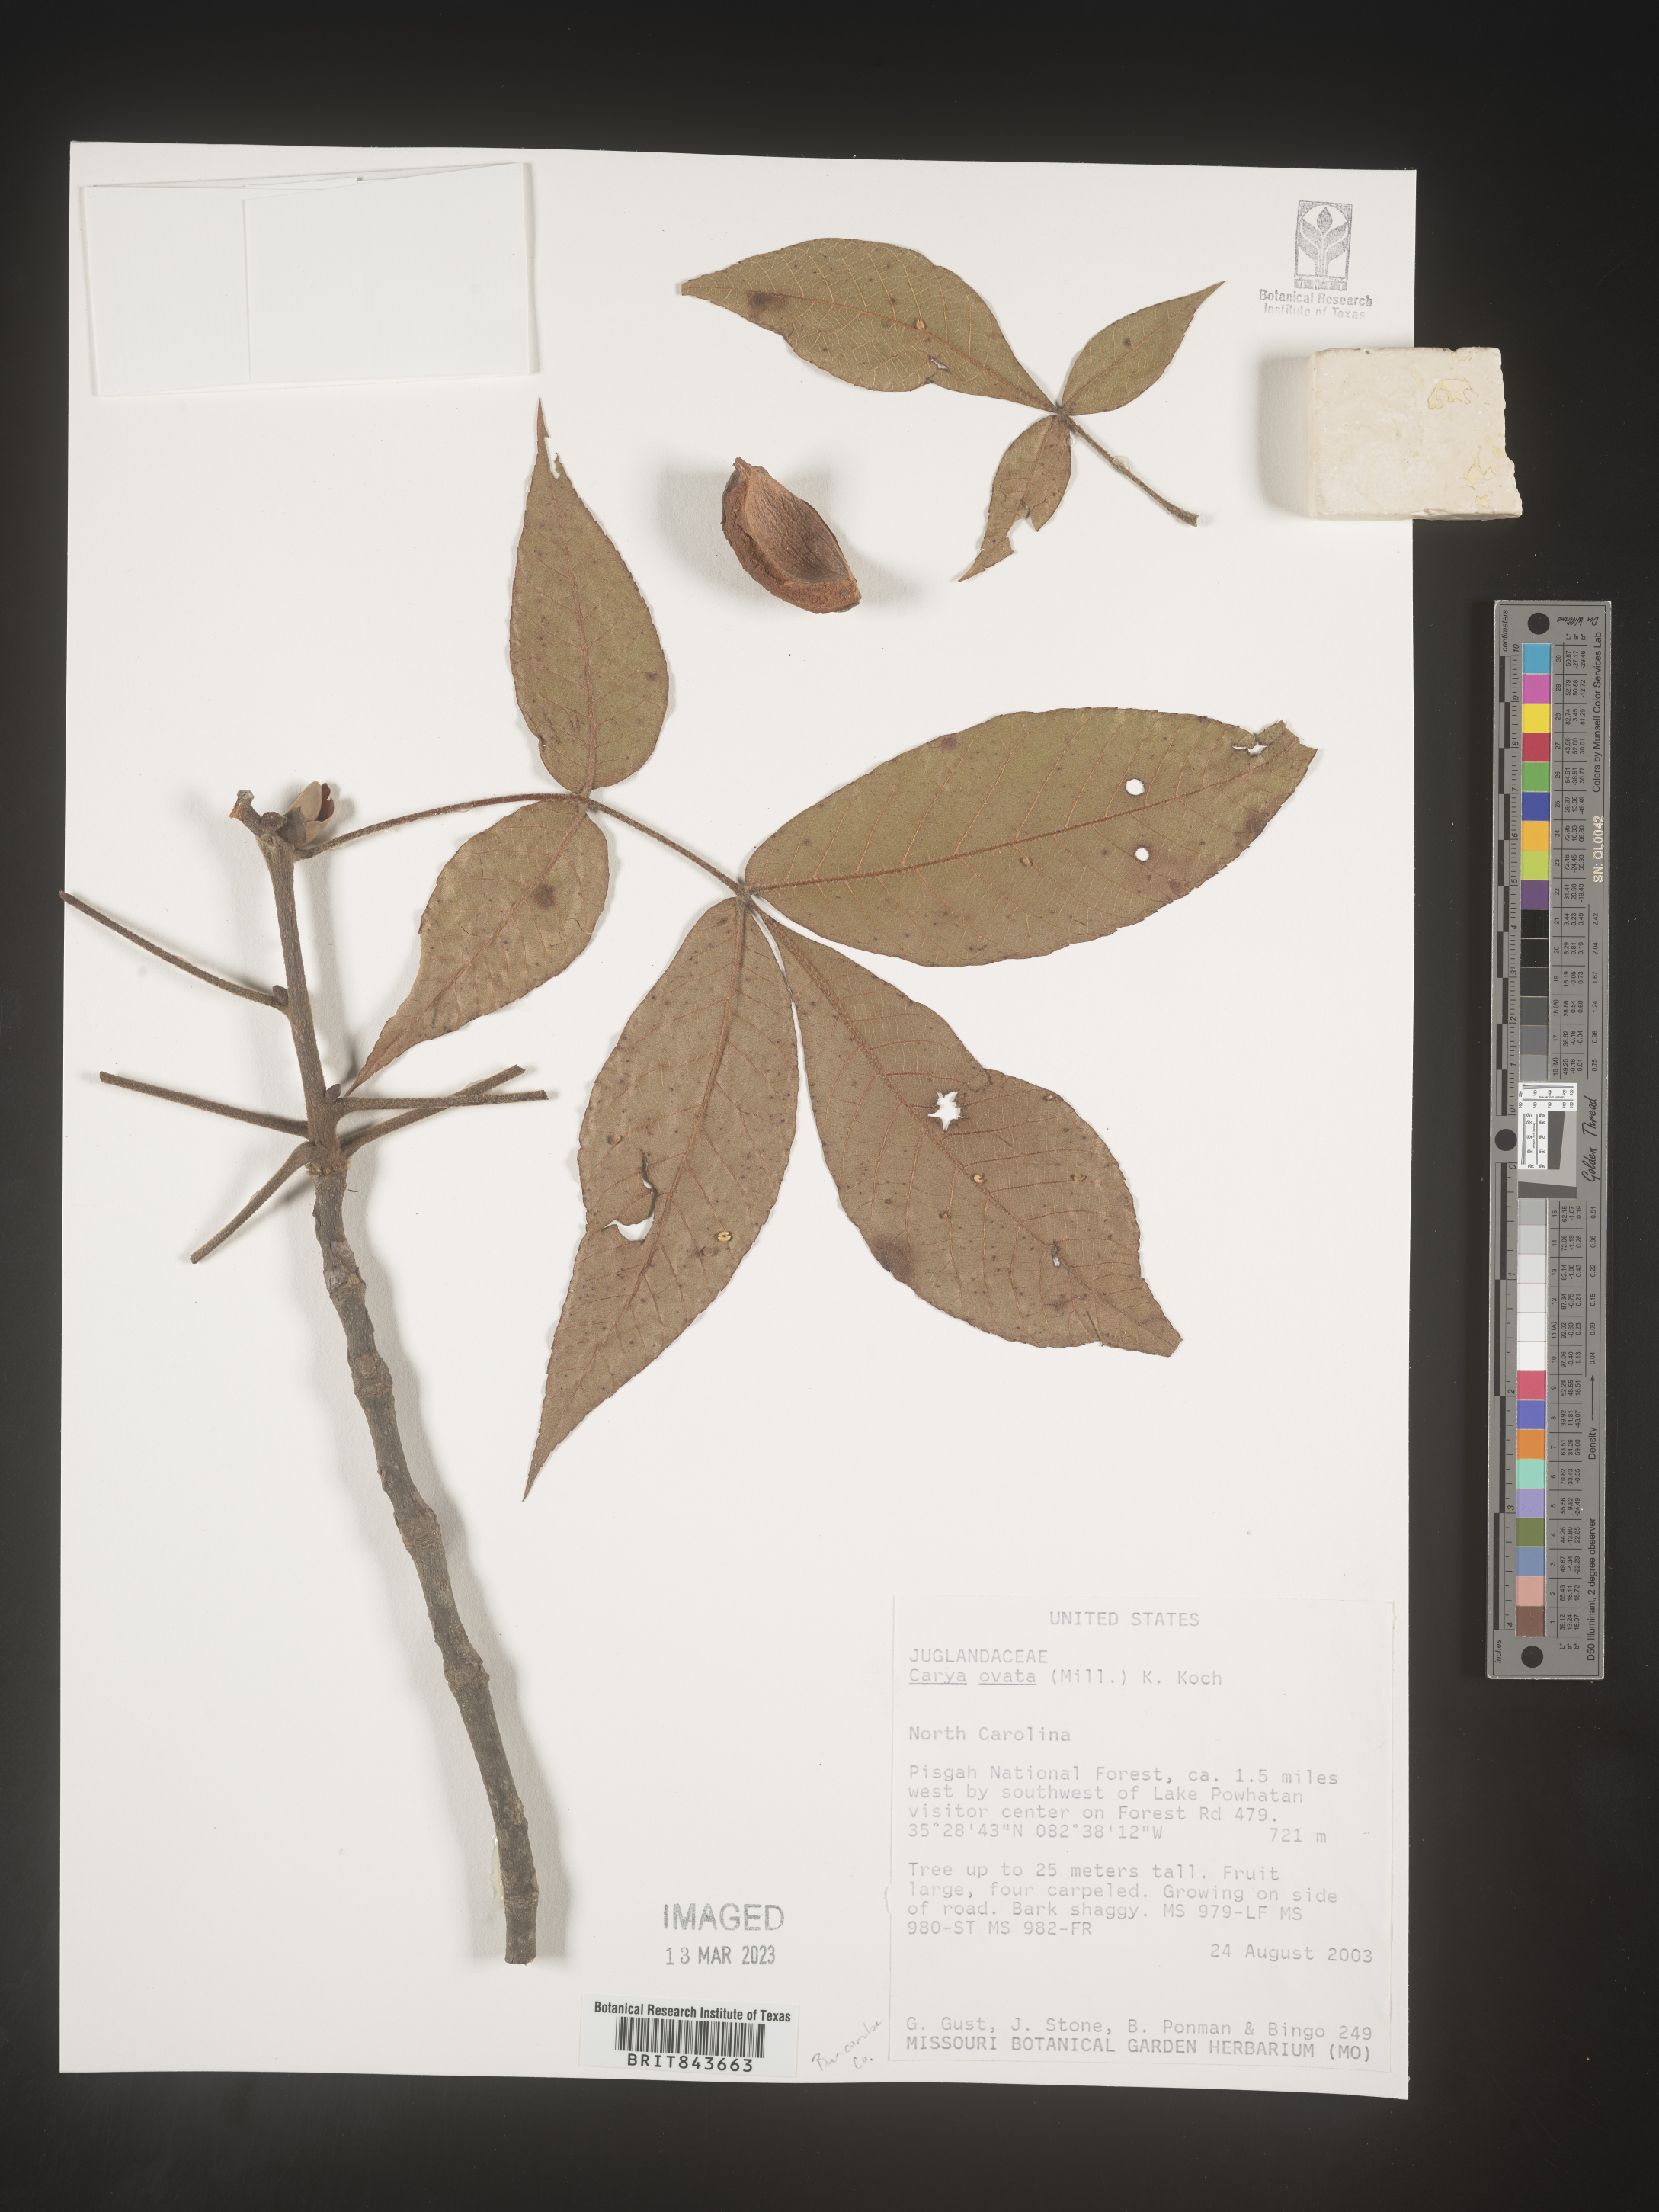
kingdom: Plantae
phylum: Tracheophyta
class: Magnoliopsida
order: Fagales
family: Juglandaceae
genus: Carya
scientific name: Carya ovata
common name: Shagbark hickory
